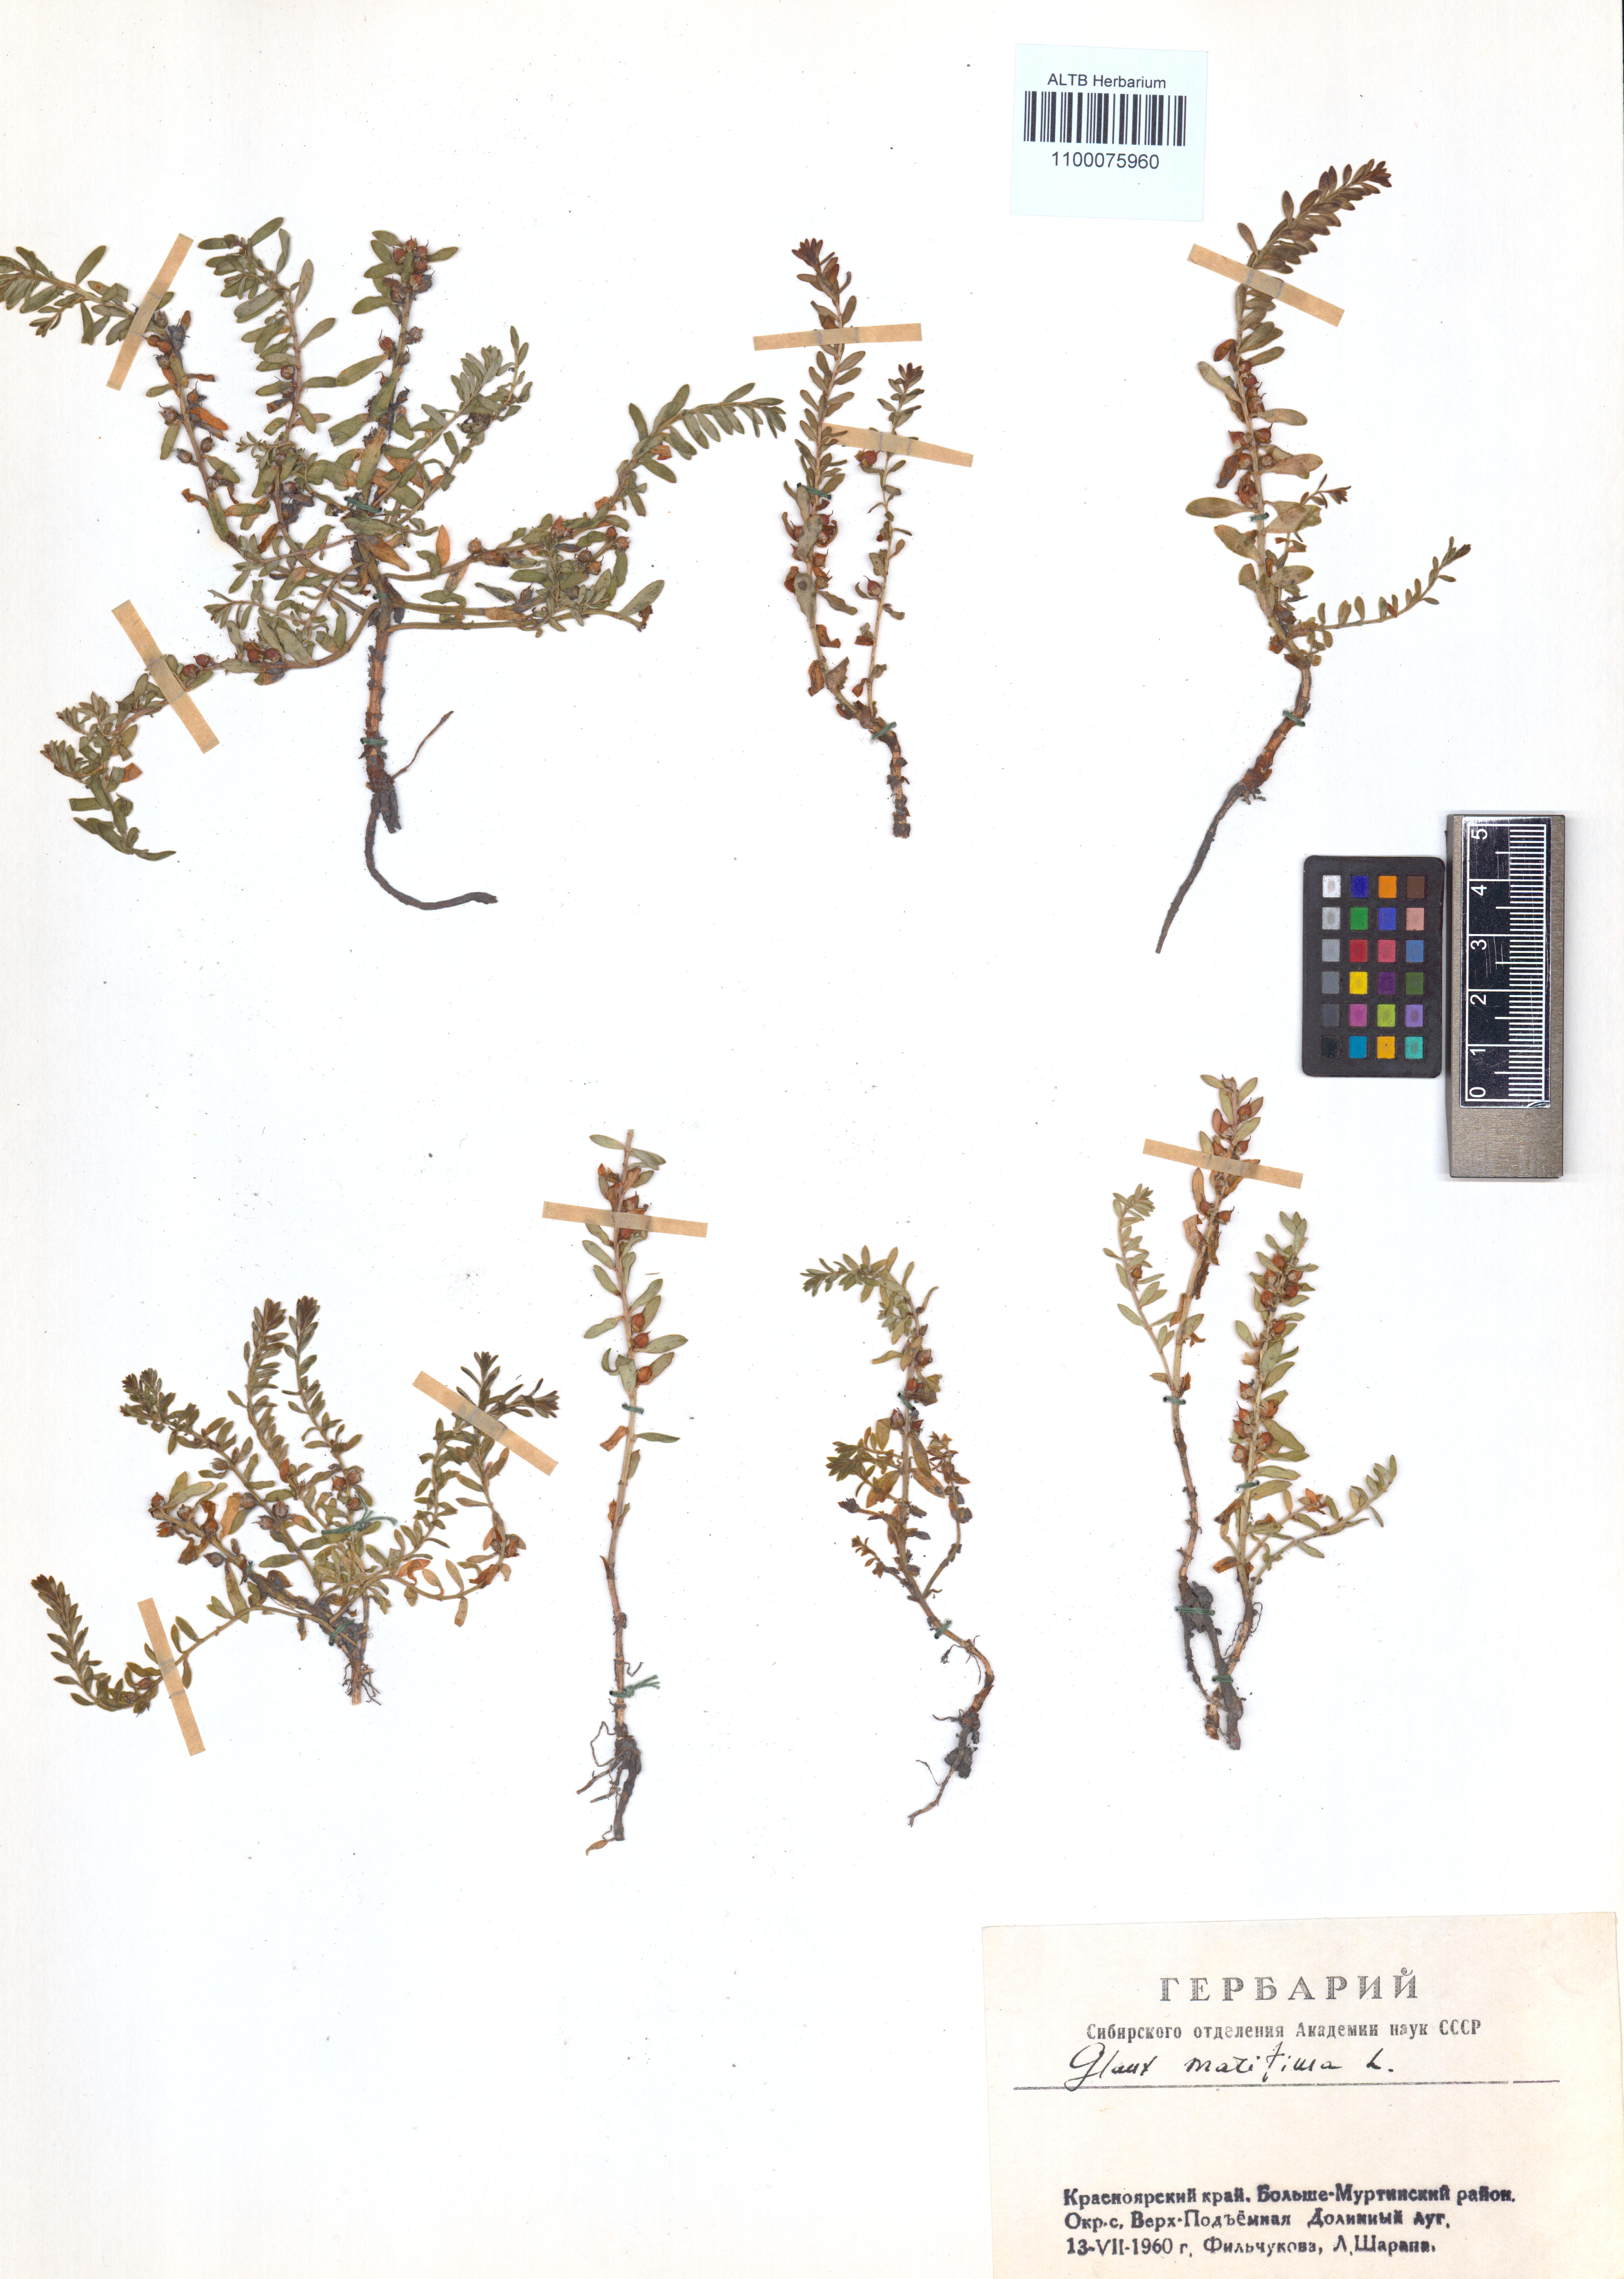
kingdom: Plantae
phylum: Tracheophyta
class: Magnoliopsida
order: Ericales
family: Primulaceae
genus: Lysimachia
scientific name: Lysimachia maritima
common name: Sea milkwort
